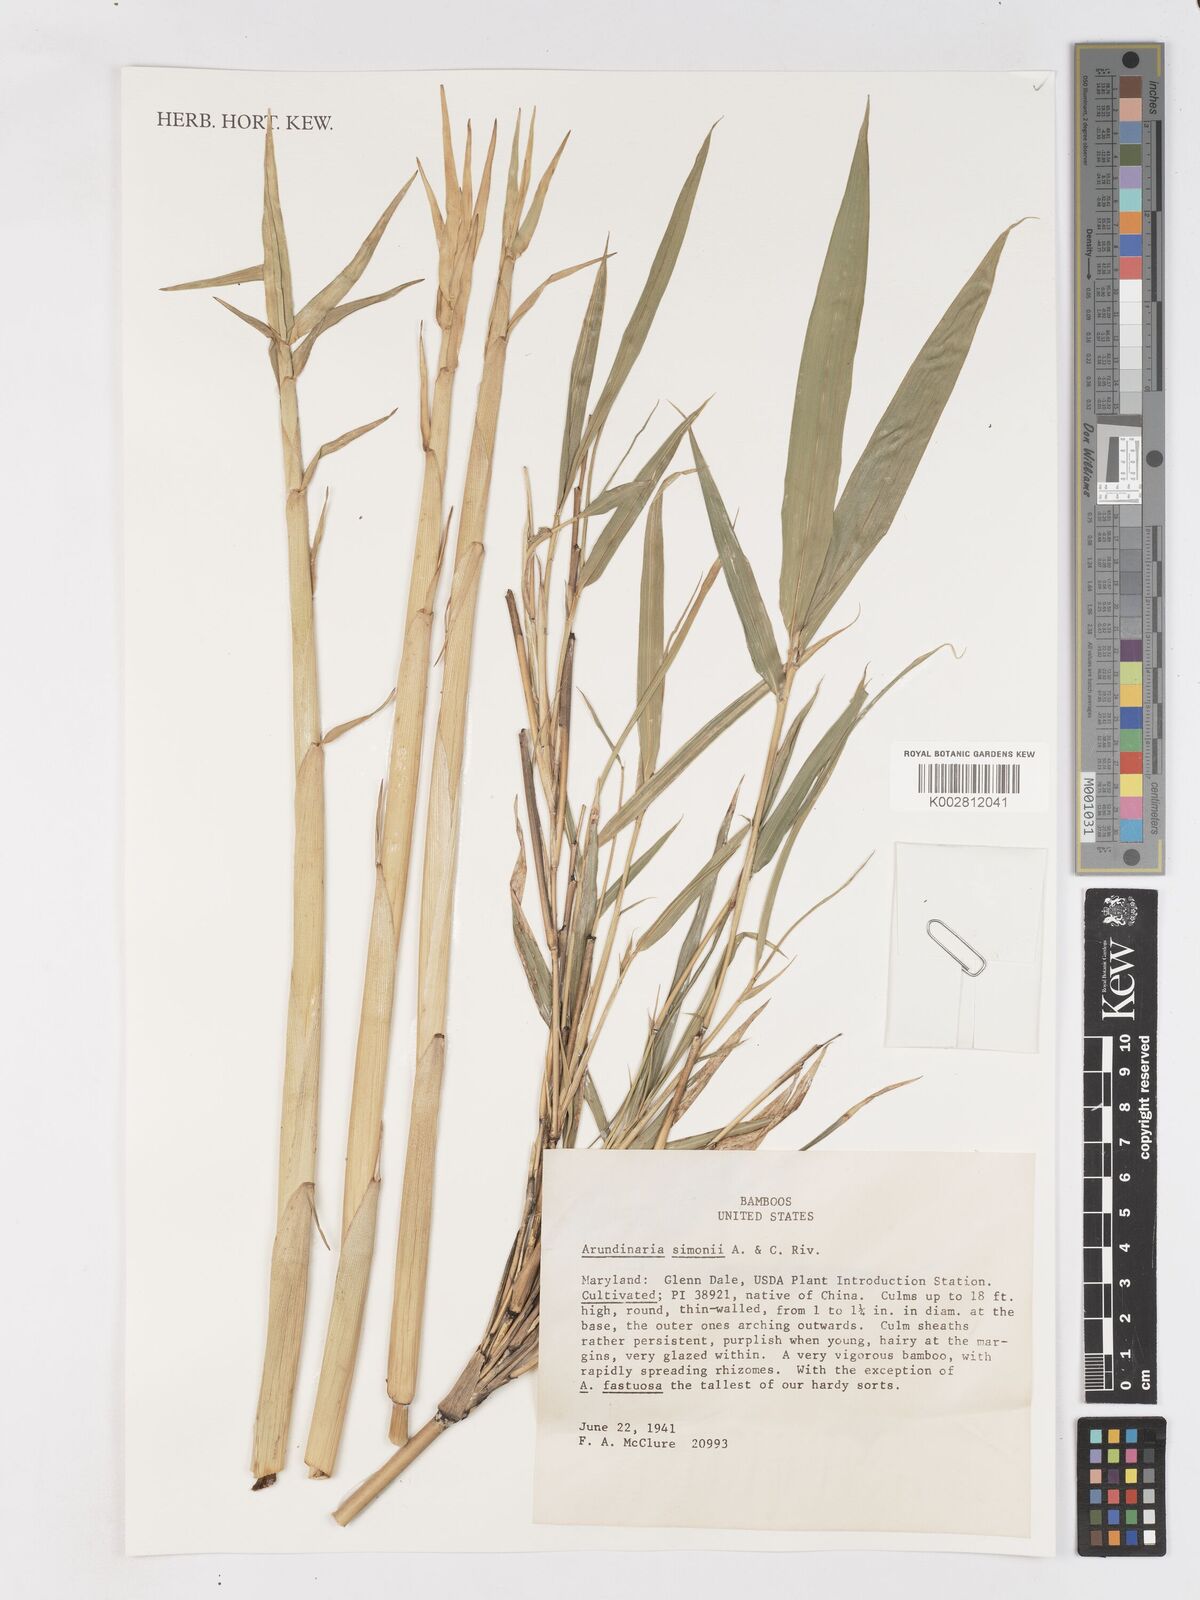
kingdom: Plantae
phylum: Tracheophyta
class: Liliopsida
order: Poales
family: Poaceae
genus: Pleioblastus
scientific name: Pleioblastus simonii
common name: Simon bamboo
